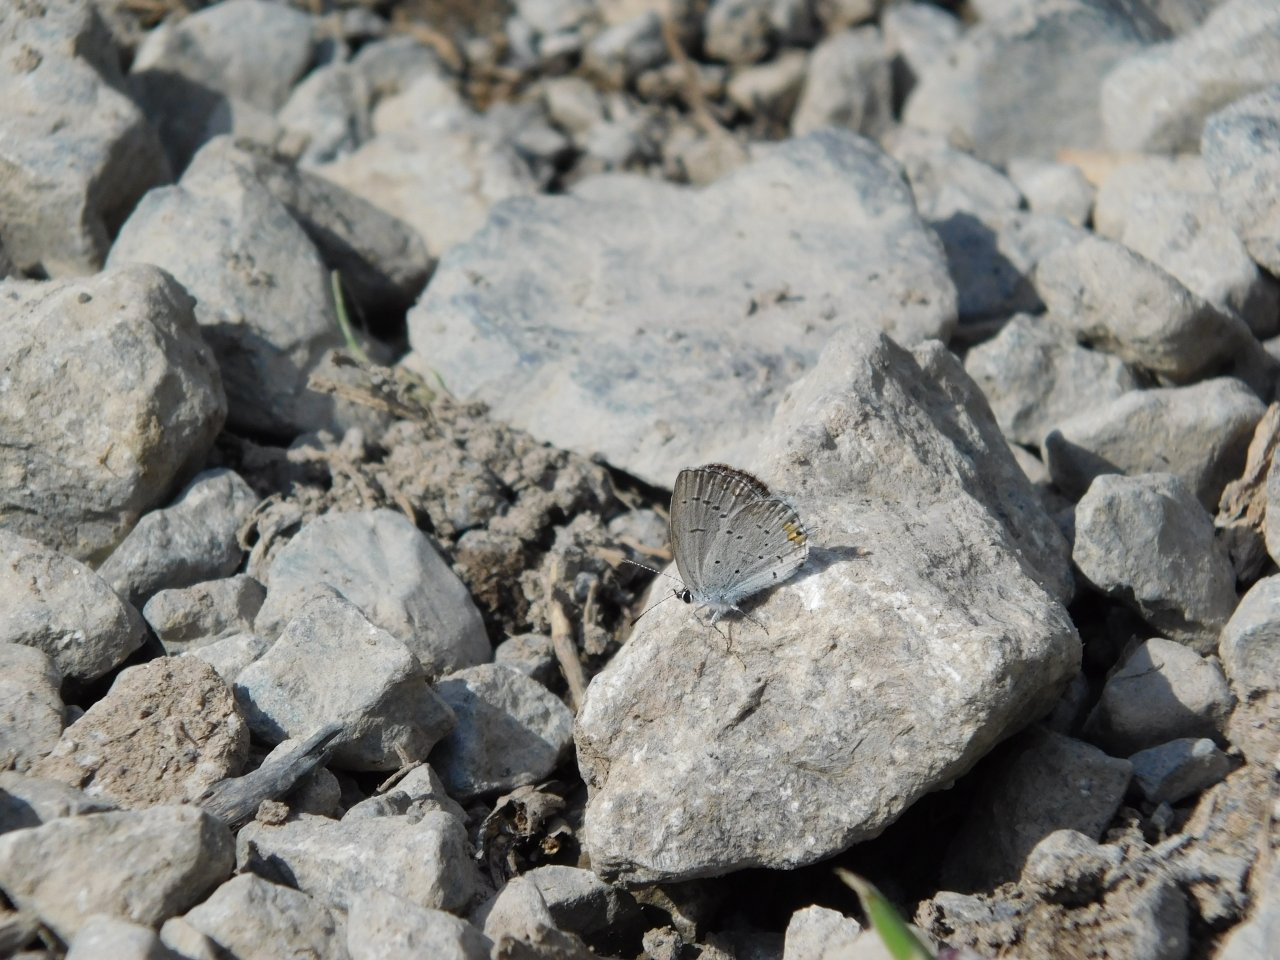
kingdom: Animalia
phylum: Arthropoda
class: Insecta
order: Lepidoptera
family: Lycaenidae
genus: Elkalyce
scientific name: Elkalyce comyntas
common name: Eastern Tailed-Blue
